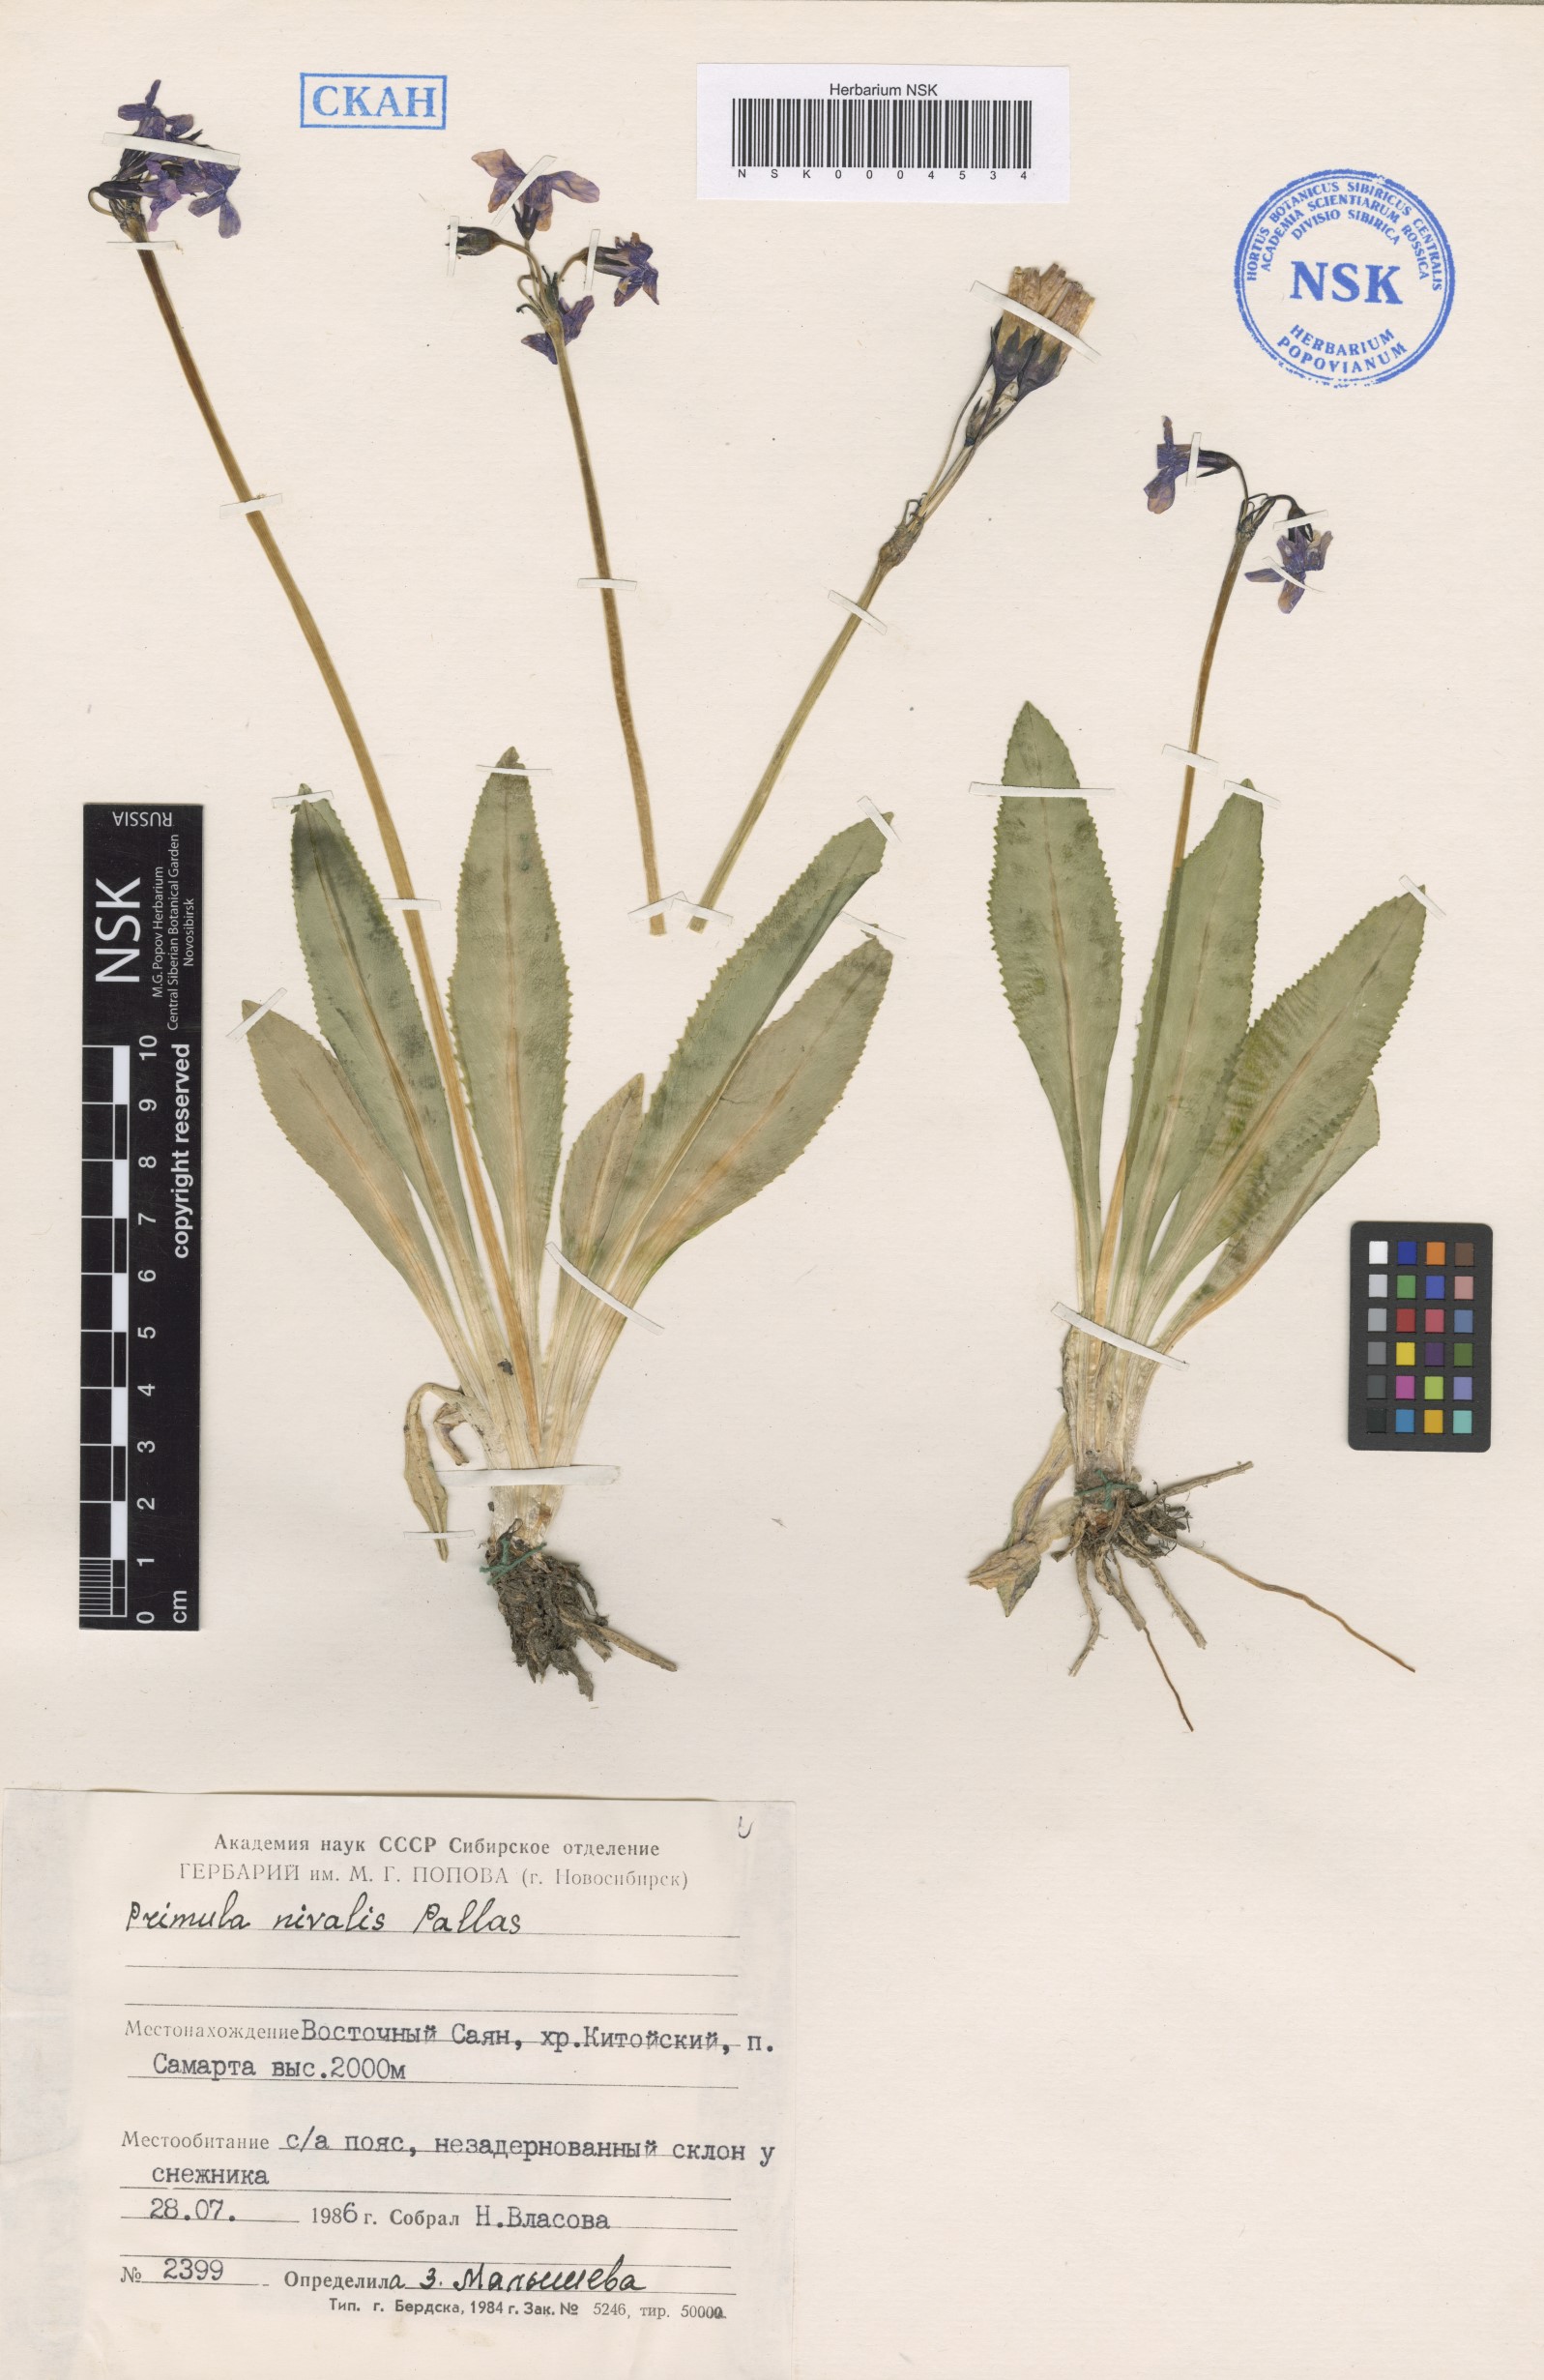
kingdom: Plantae
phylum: Tracheophyta
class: Magnoliopsida
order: Ericales
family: Primulaceae
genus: Primula
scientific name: Primula nivalis
